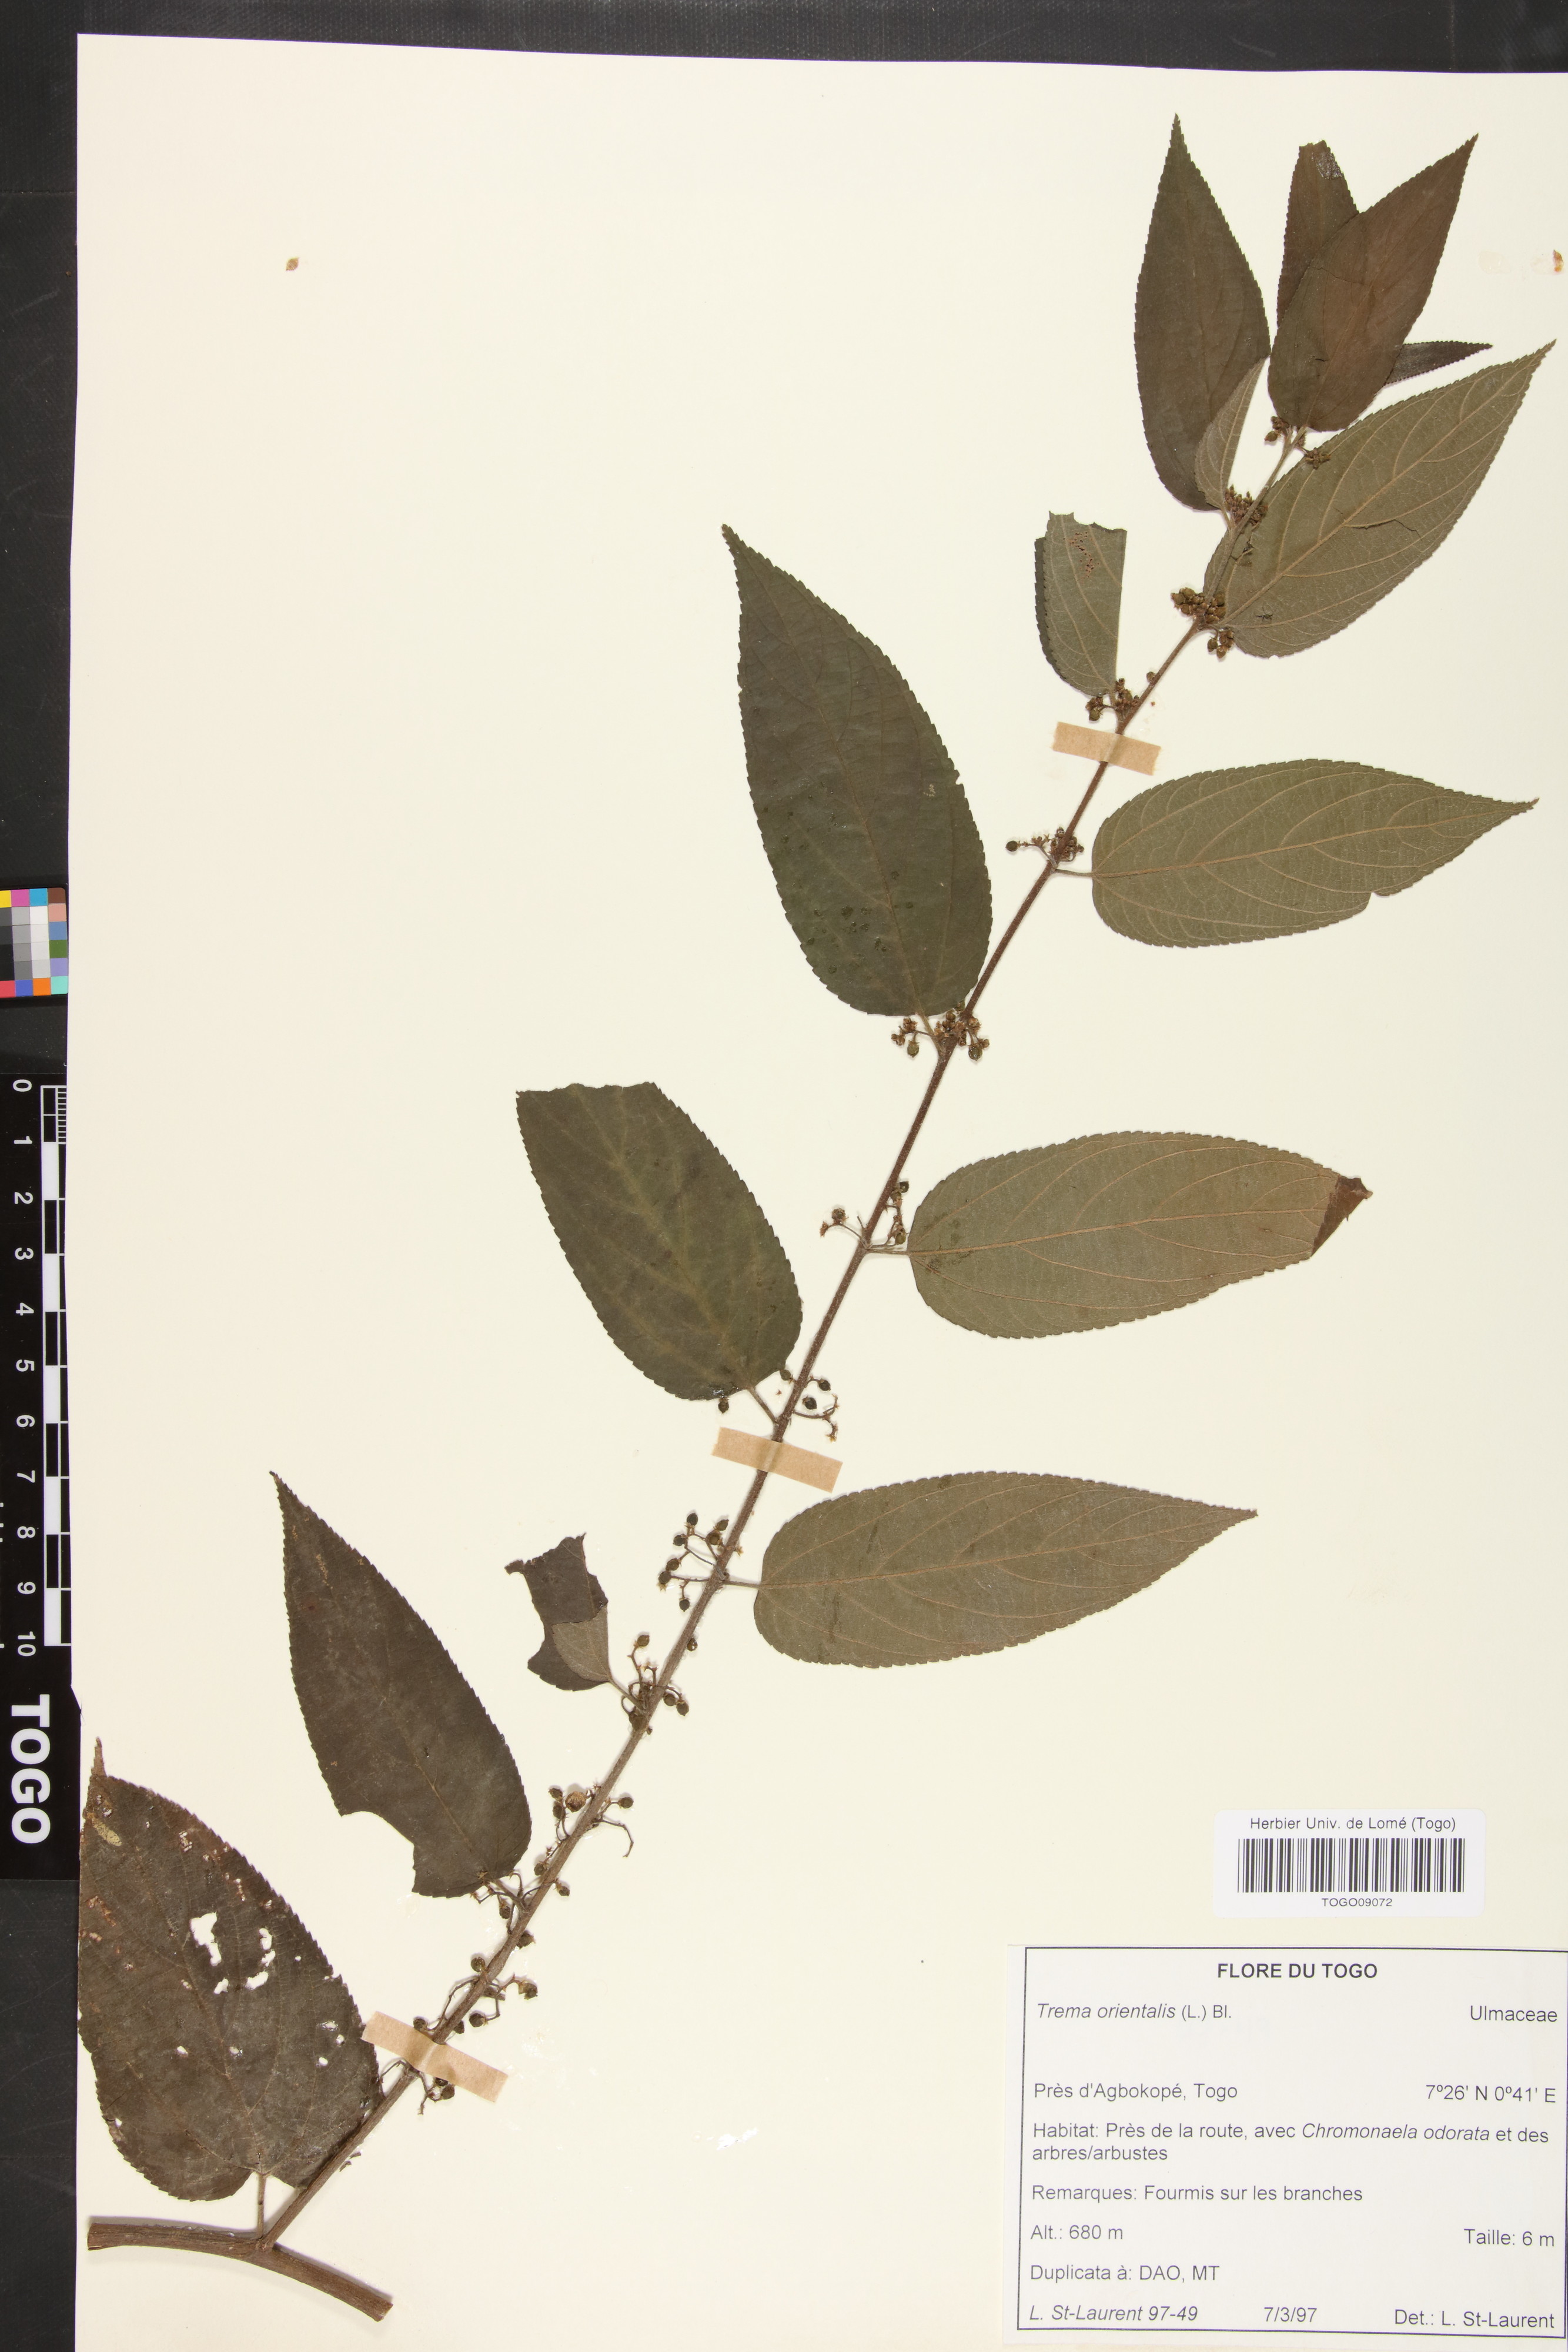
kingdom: Plantae
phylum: Tracheophyta
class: Magnoliopsida
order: Rosales
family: Cannabaceae
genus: Trema
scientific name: Trema orientale
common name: Indian charcoal tree
